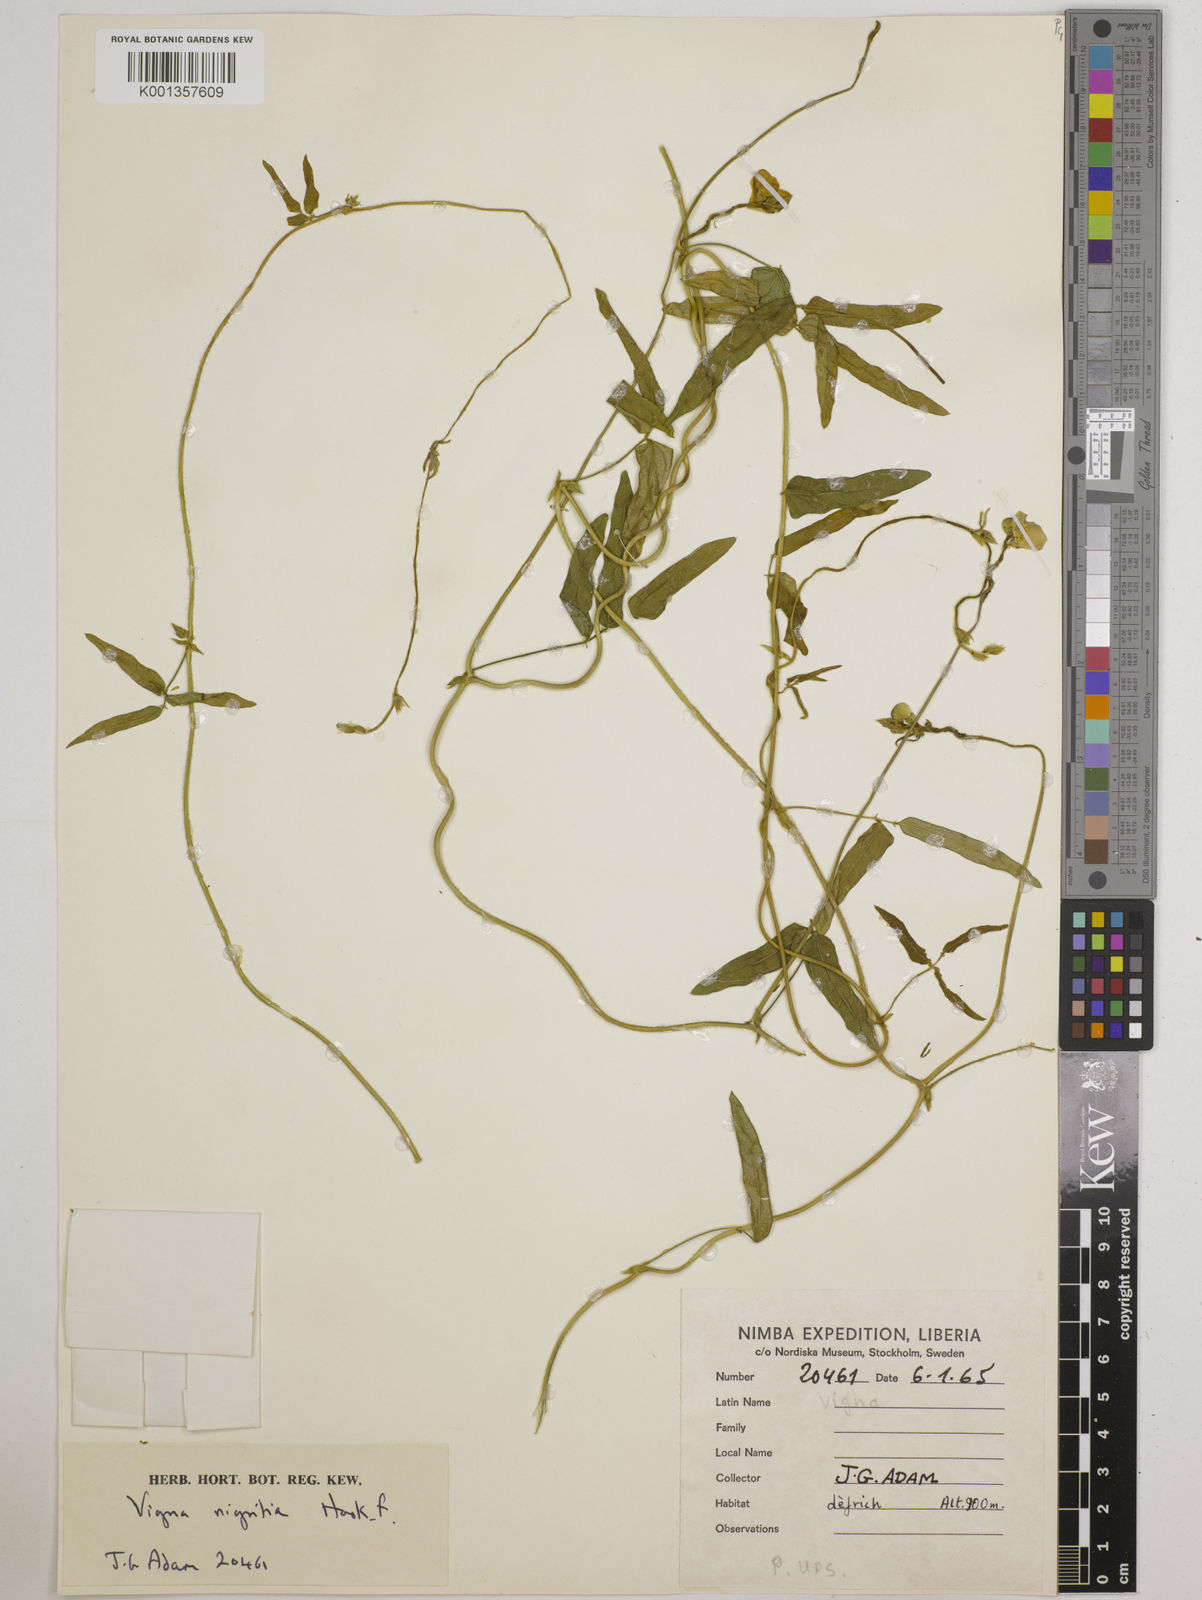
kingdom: Plantae
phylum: Tracheophyta
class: Magnoliopsida
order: Fabales
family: Fabaceae
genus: Vigna
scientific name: Vigna nigritia
